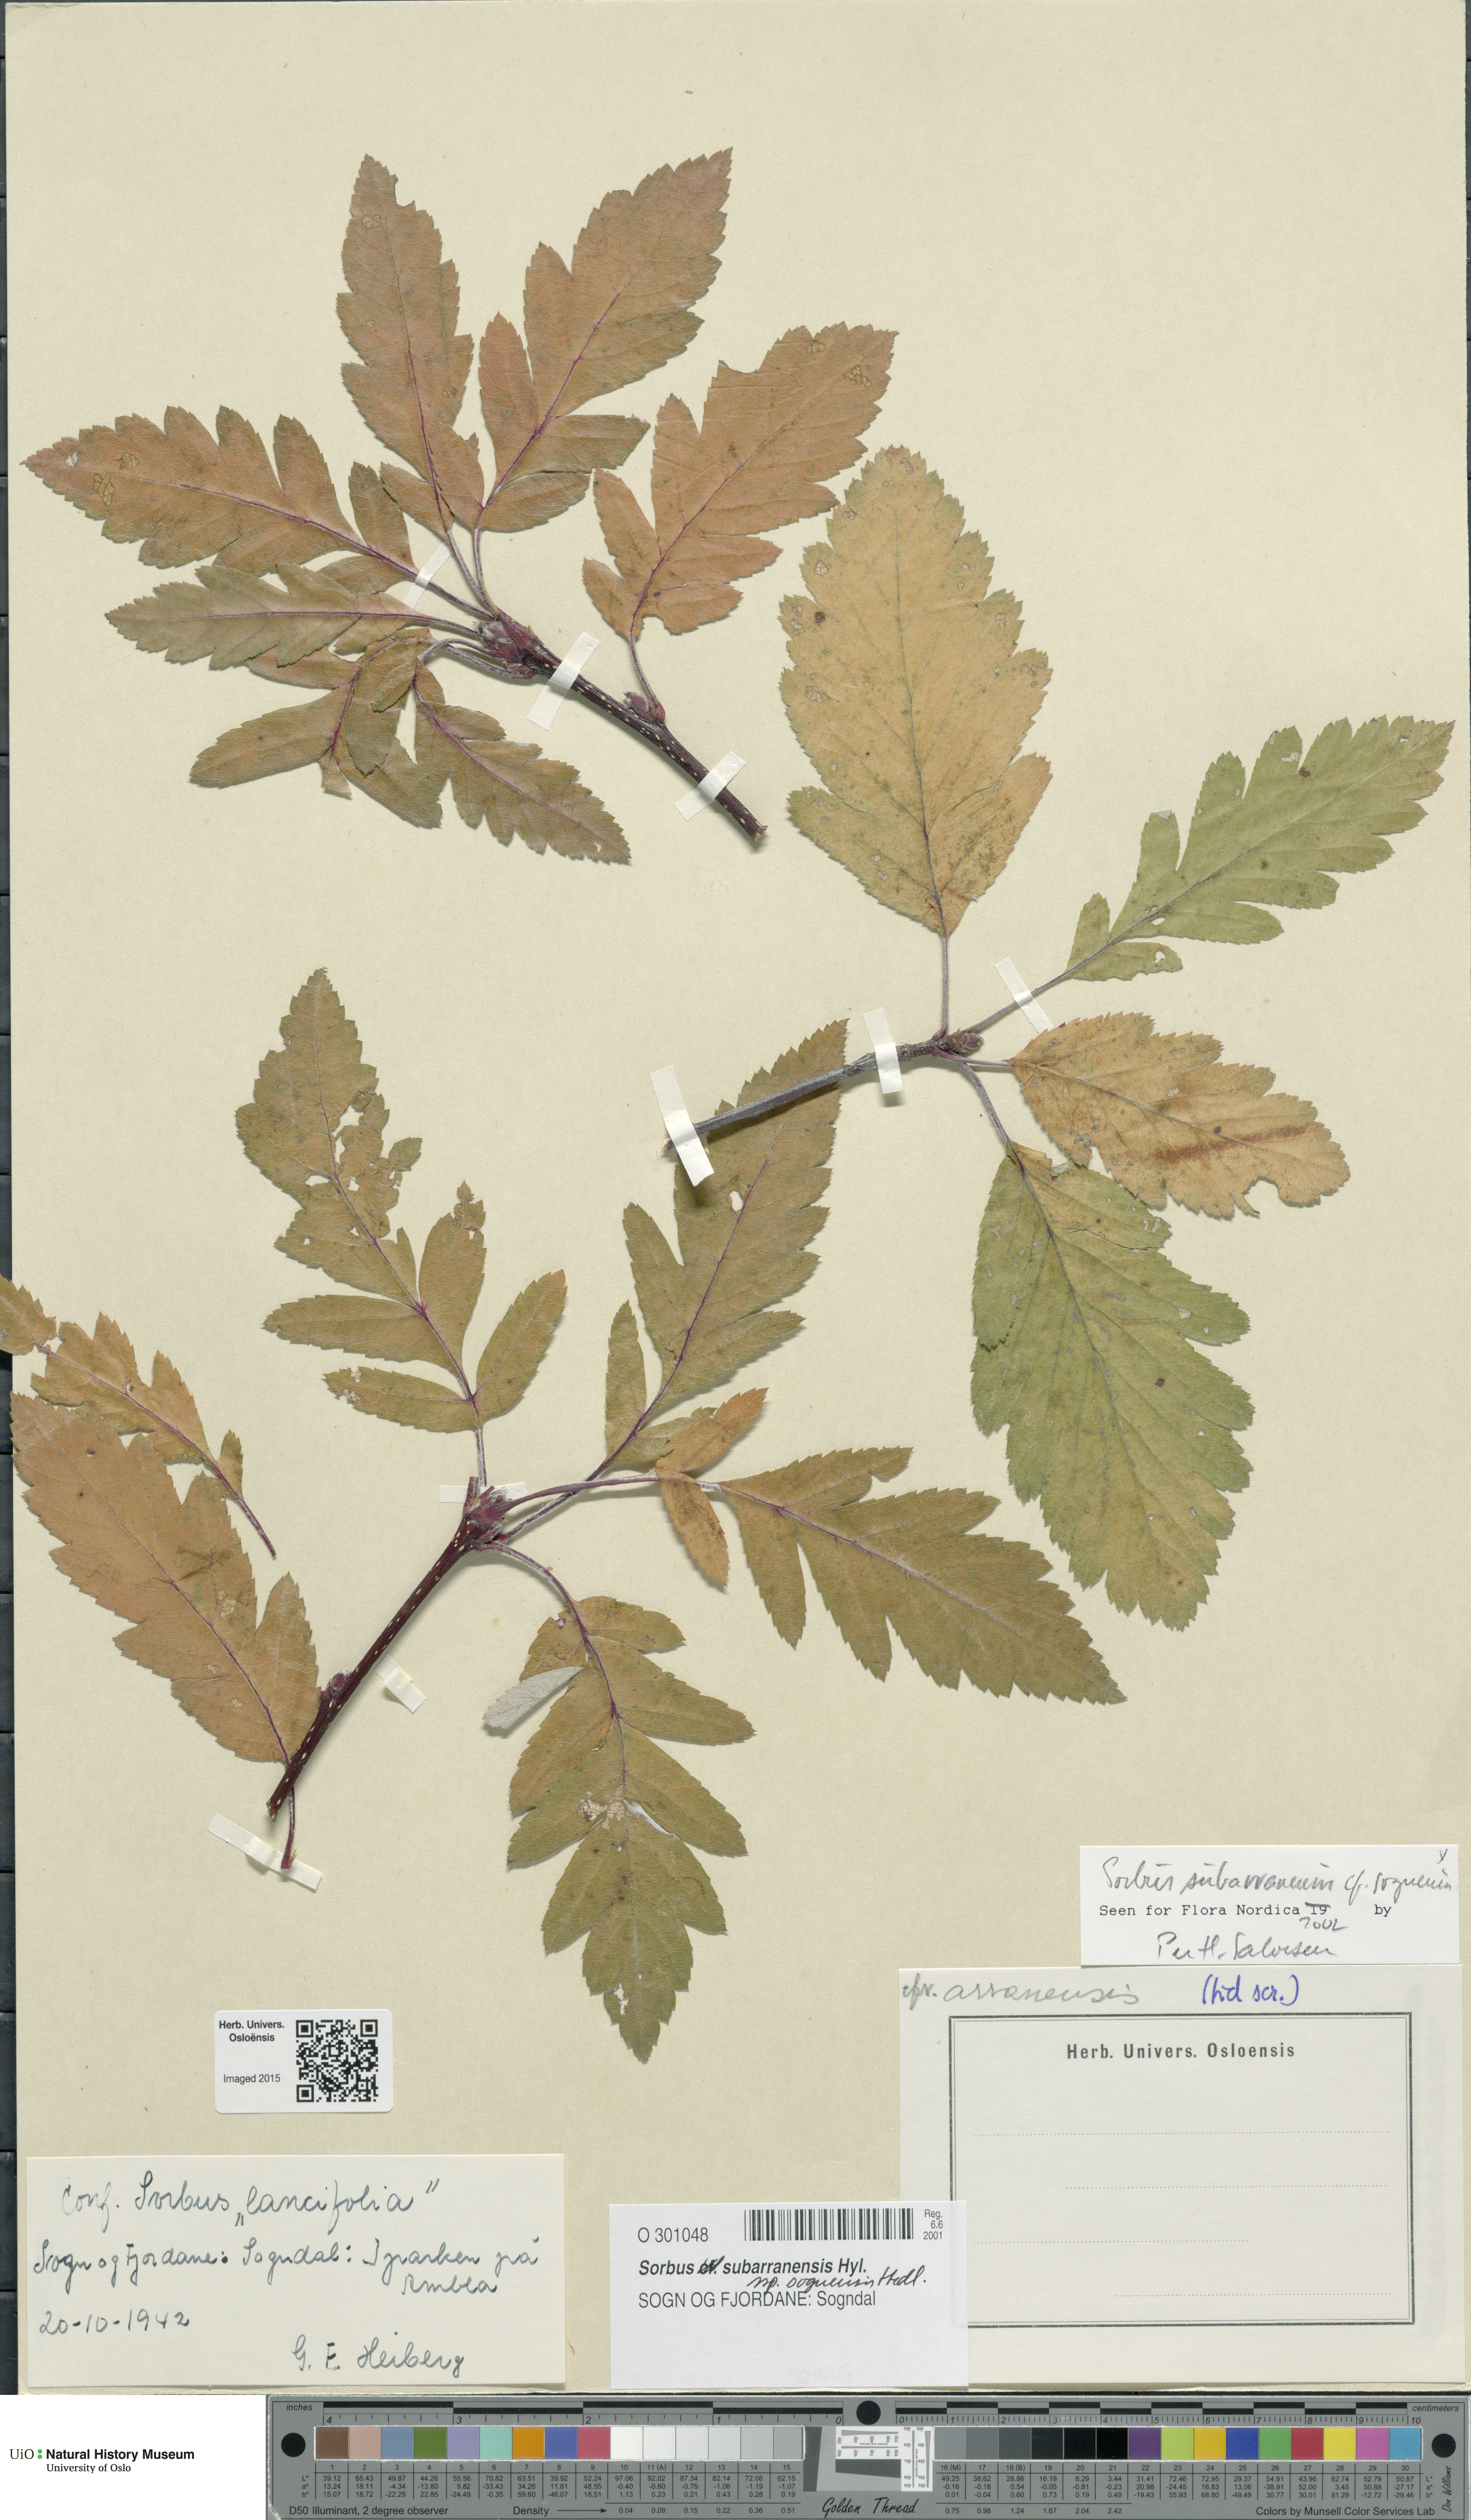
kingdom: Plantae
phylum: Tracheophyta
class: Magnoliopsida
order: Rosales
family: Rosaceae
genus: Hedlundia
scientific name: Hedlundia sognensis
